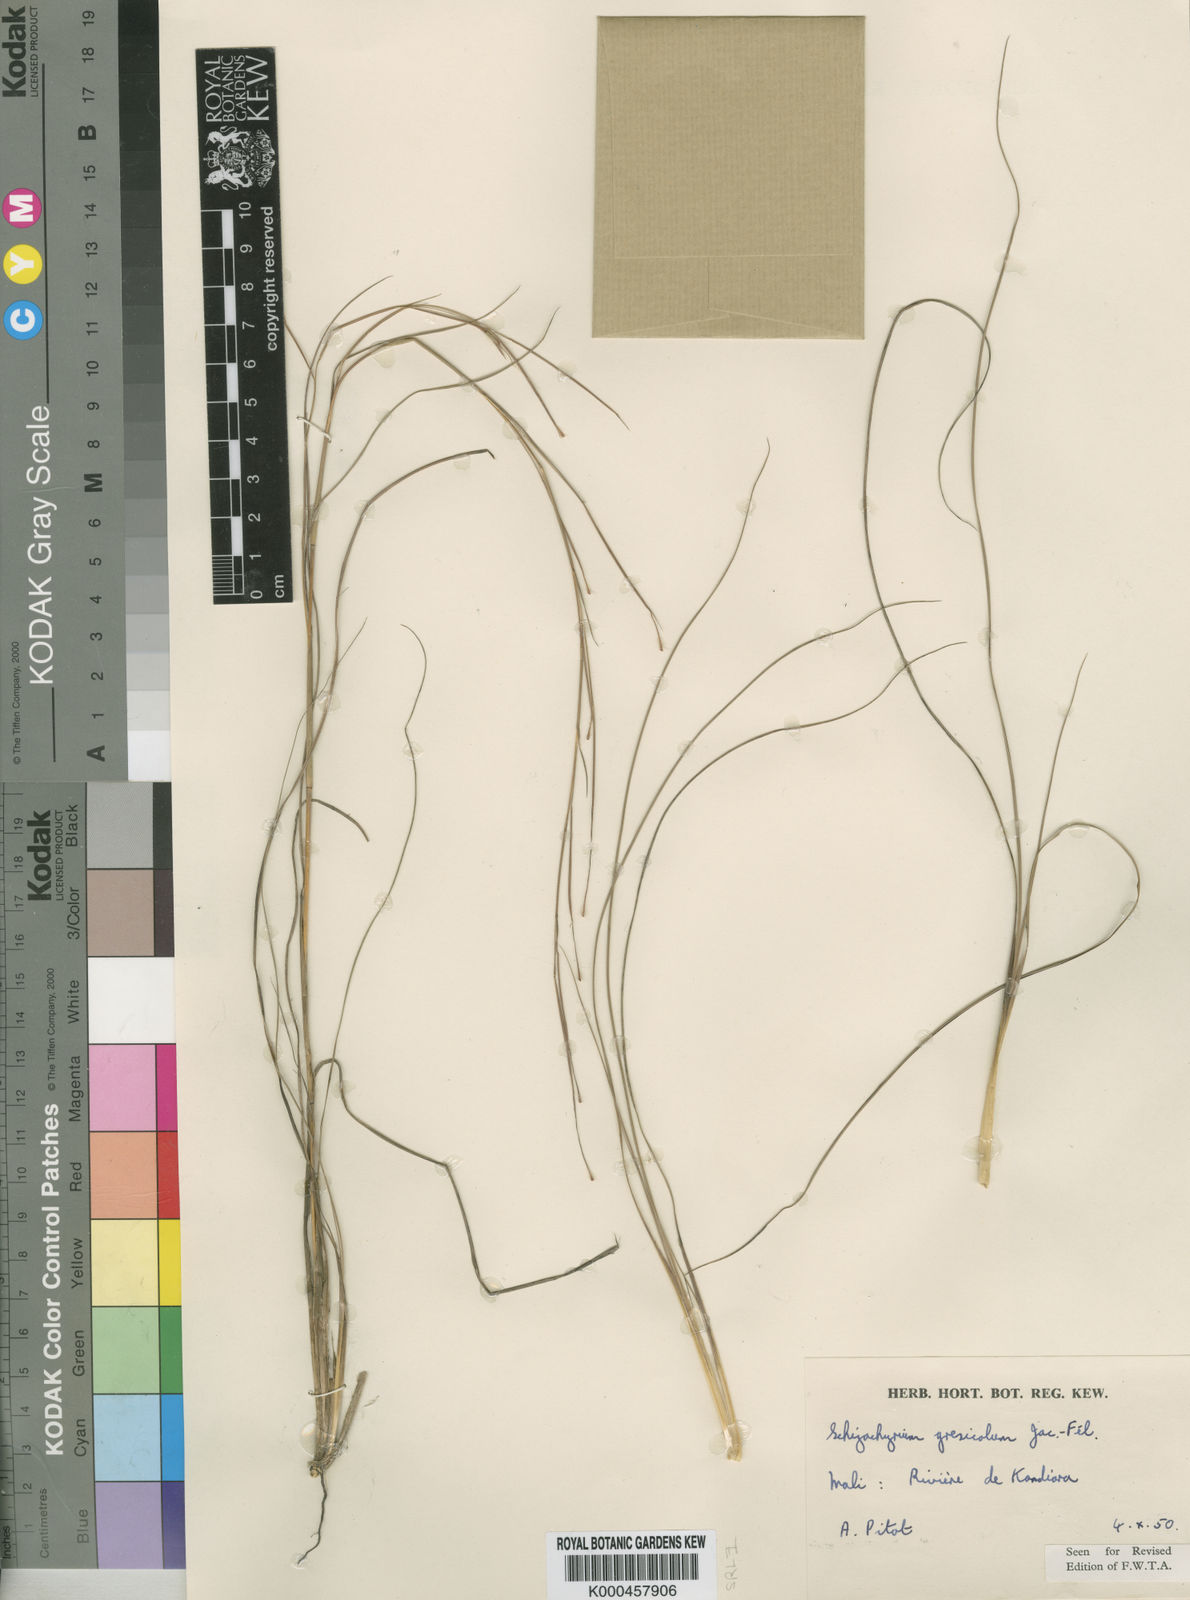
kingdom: Plantae
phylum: Tracheophyta
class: Liliopsida
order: Poales
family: Poaceae
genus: Schizachyrium
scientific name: Schizachyrium gresicola
